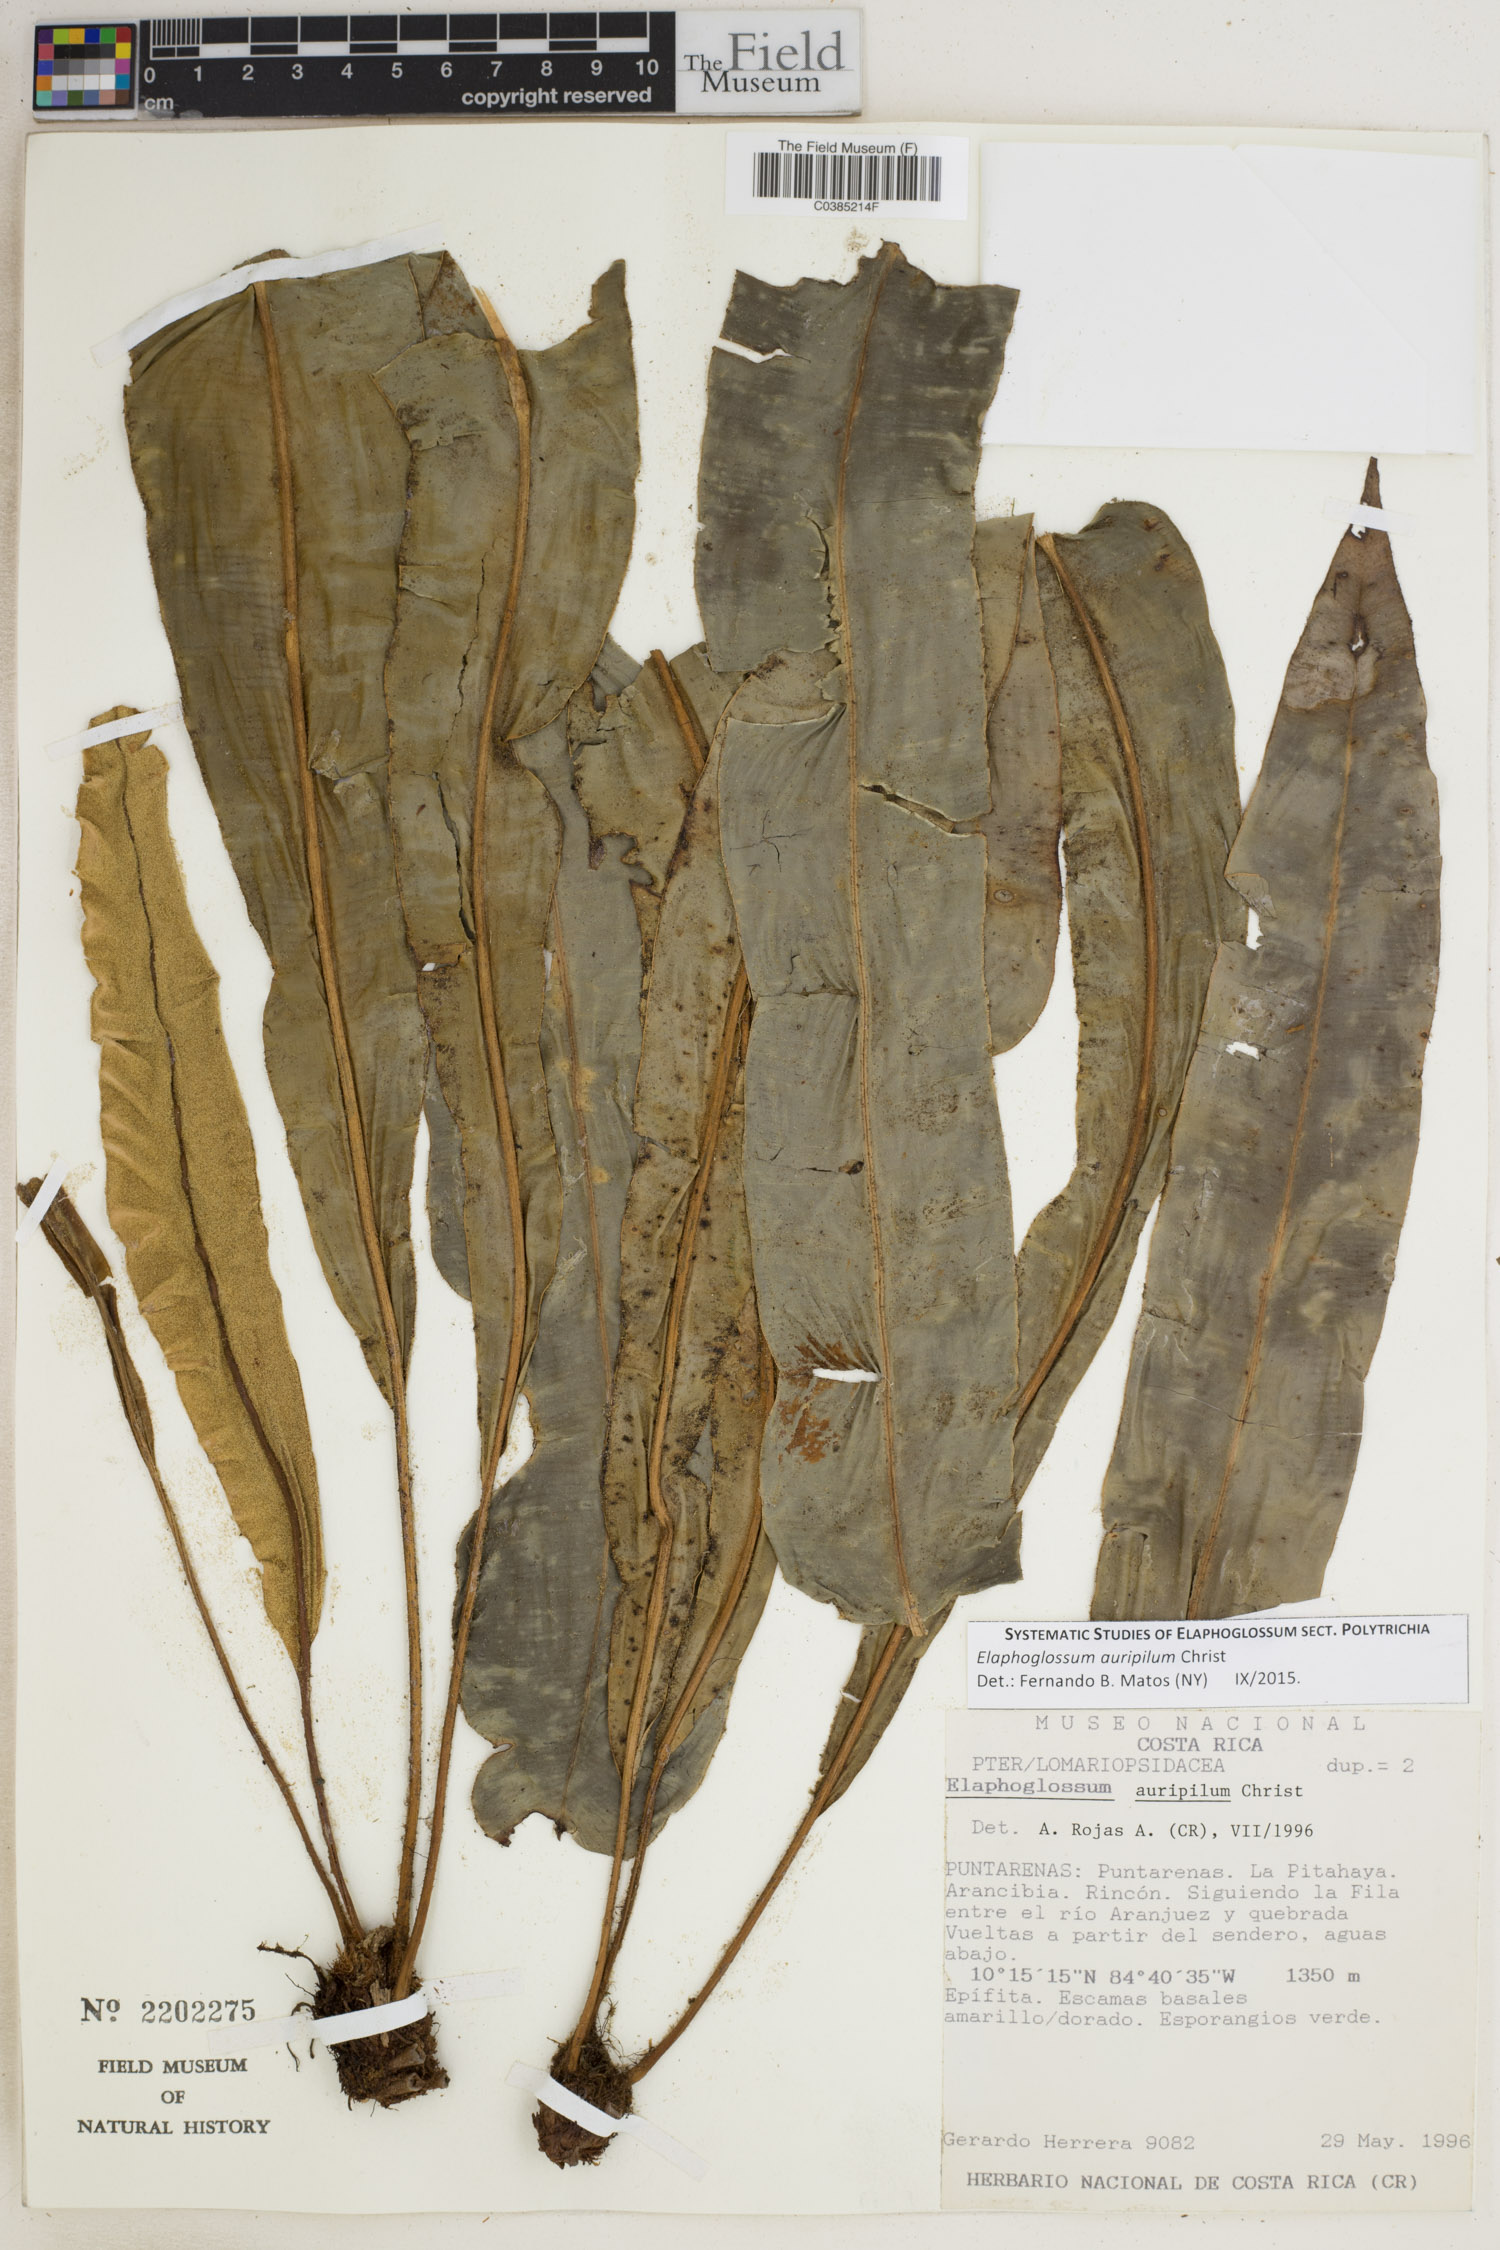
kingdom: Plantae
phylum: Tracheophyta
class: Polypodiopsida
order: Polypodiales
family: Dryopteridaceae
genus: Elaphoglossum
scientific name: Elaphoglossum auripilum
